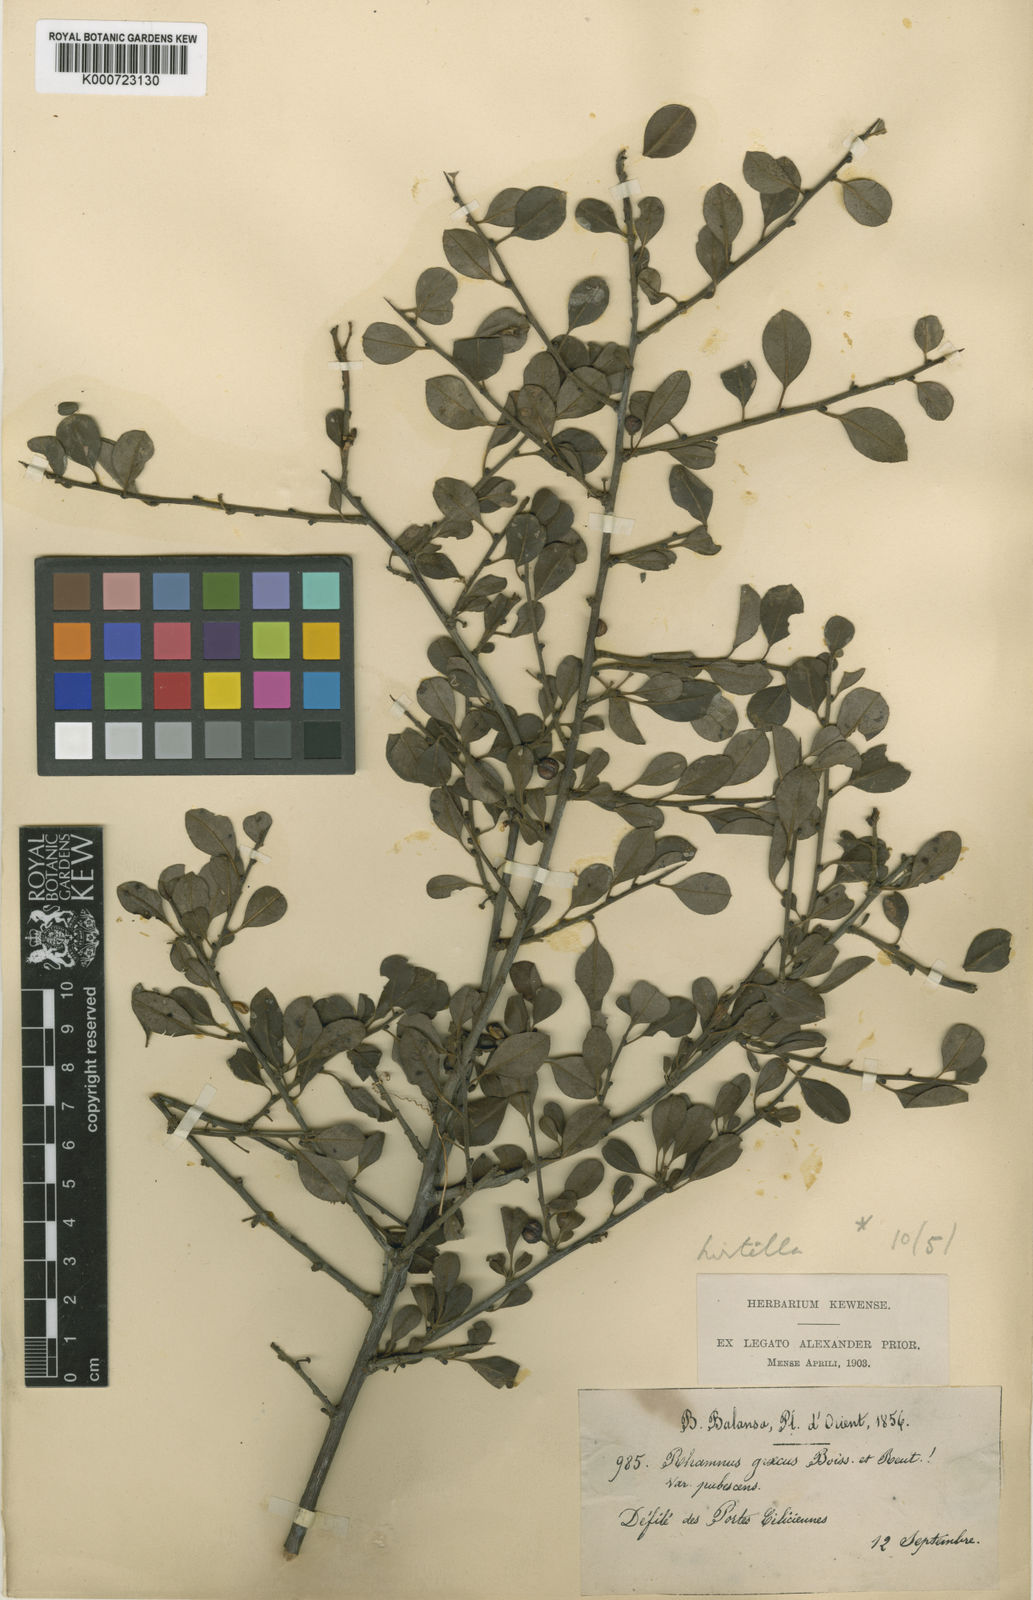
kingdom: Plantae
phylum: Tracheophyta
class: Magnoliopsida
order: Rosales
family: Rhamnaceae
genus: Rhamnus
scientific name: Rhamnus hirtella
